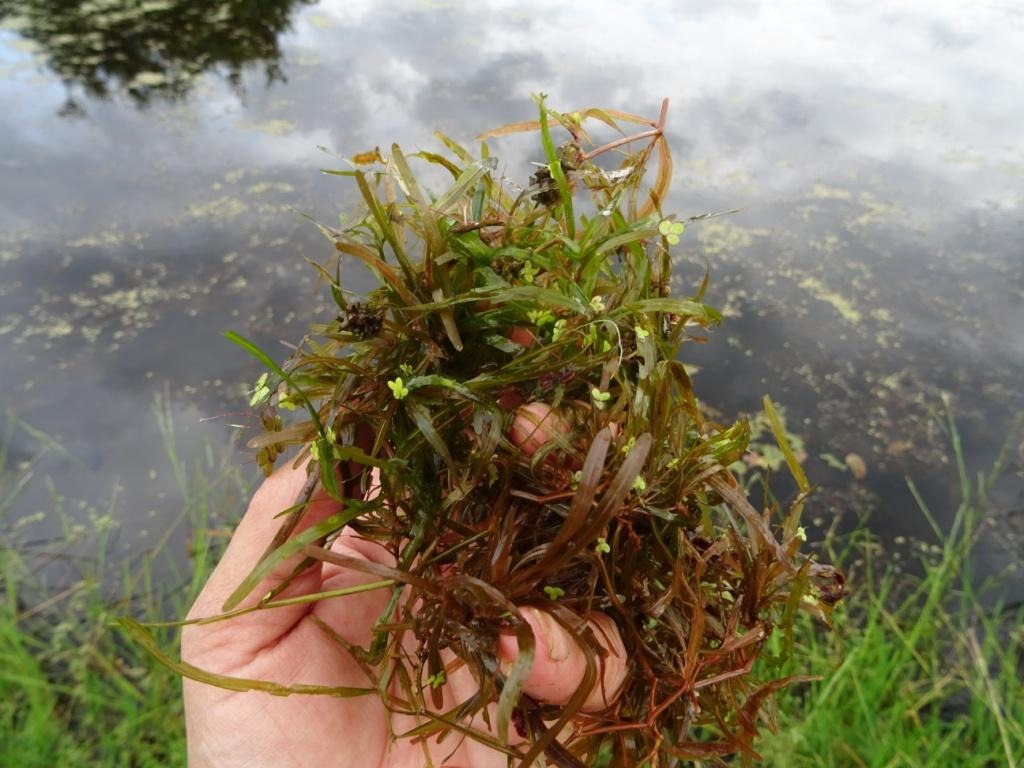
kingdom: Plantae
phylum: Tracheophyta
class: Liliopsida
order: Alismatales
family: Potamogetonaceae
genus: Potamogeton
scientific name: Potamogeton obtusifolius
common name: Butbladet vandaks
